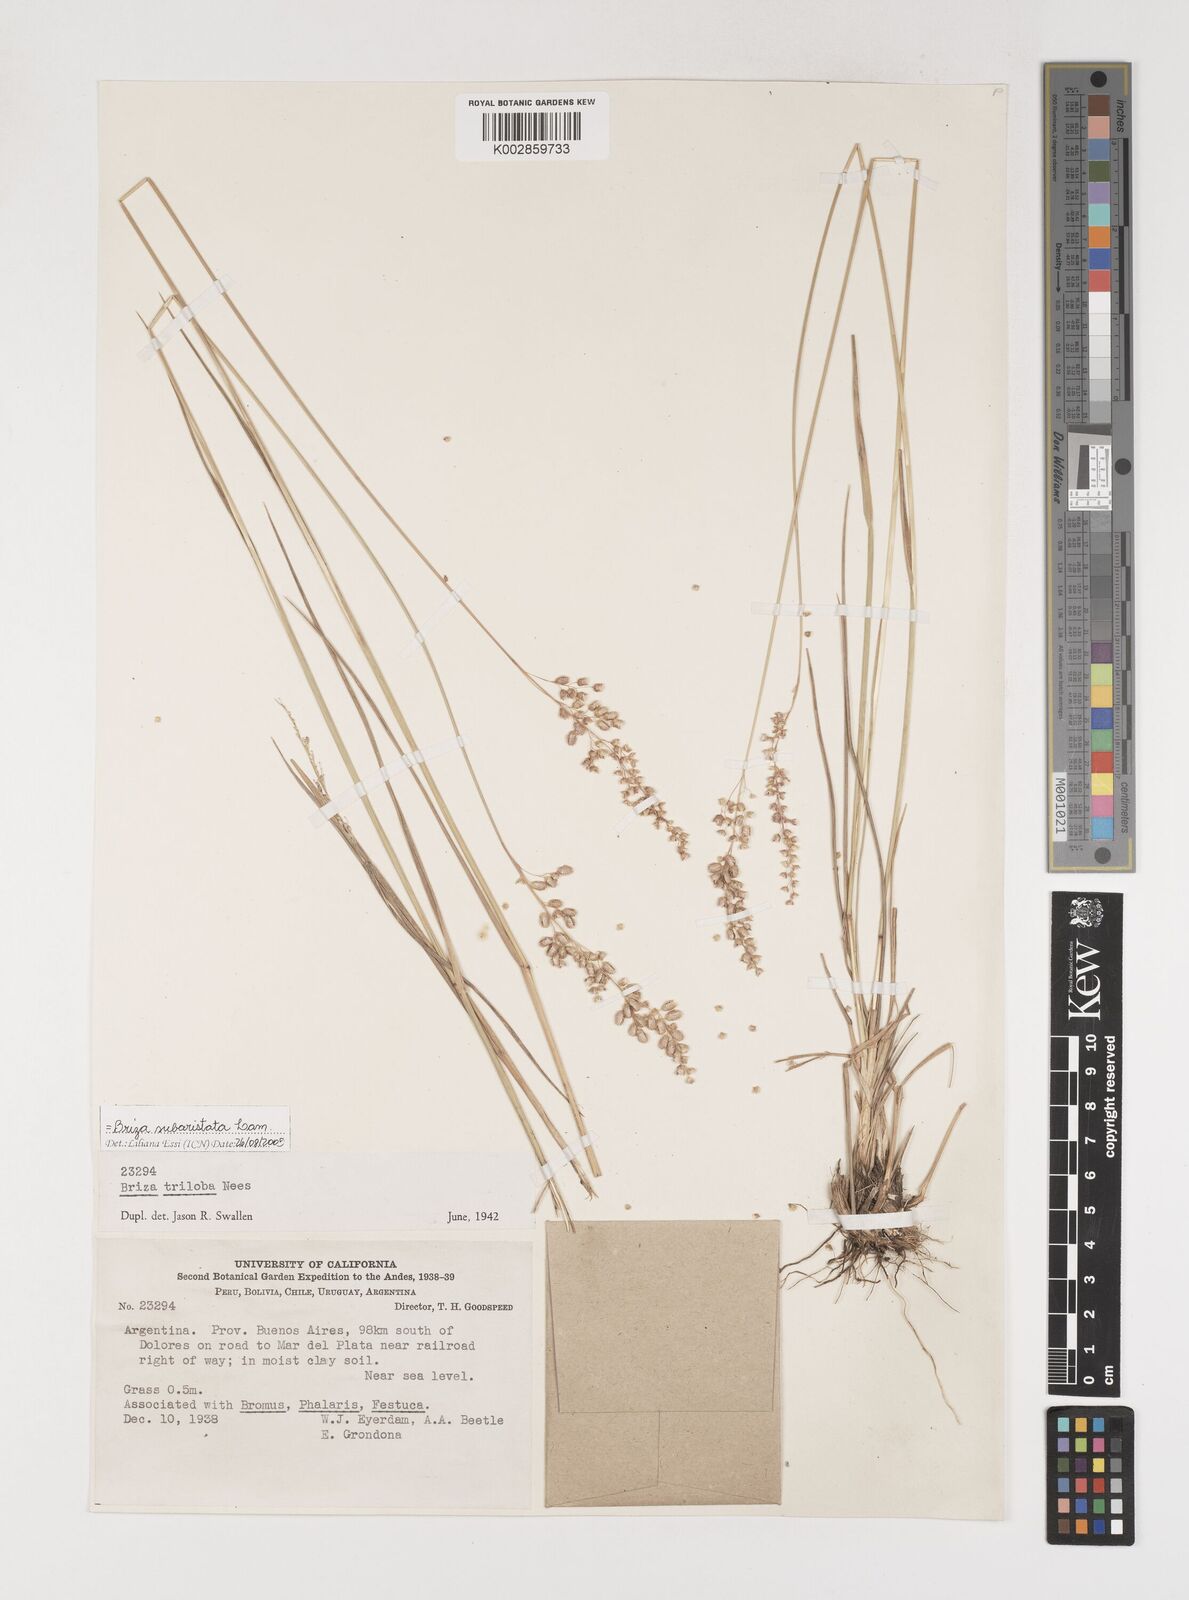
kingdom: Plantae
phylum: Tracheophyta
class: Liliopsida
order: Poales
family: Poaceae
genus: Chascolytrum
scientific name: Chascolytrum subaristatum
